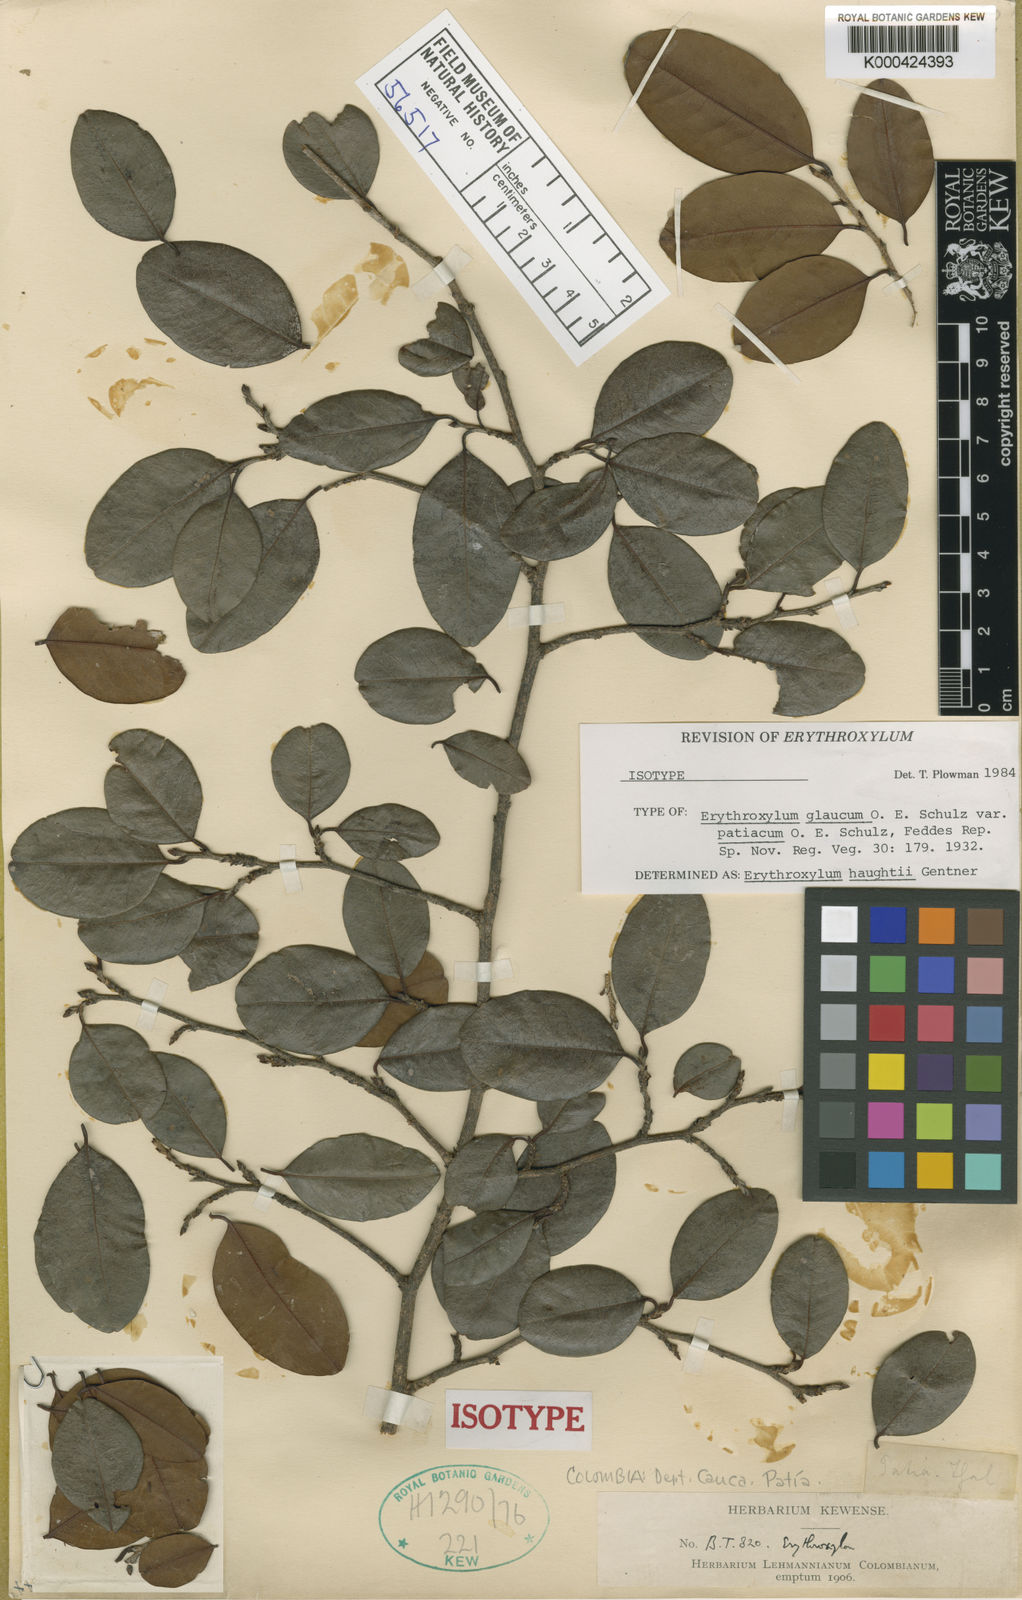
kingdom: Plantae
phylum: Tracheophyta
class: Magnoliopsida
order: Malpighiales
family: Erythroxylaceae
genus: Erythroxylum
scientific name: Erythroxylum haughtii
